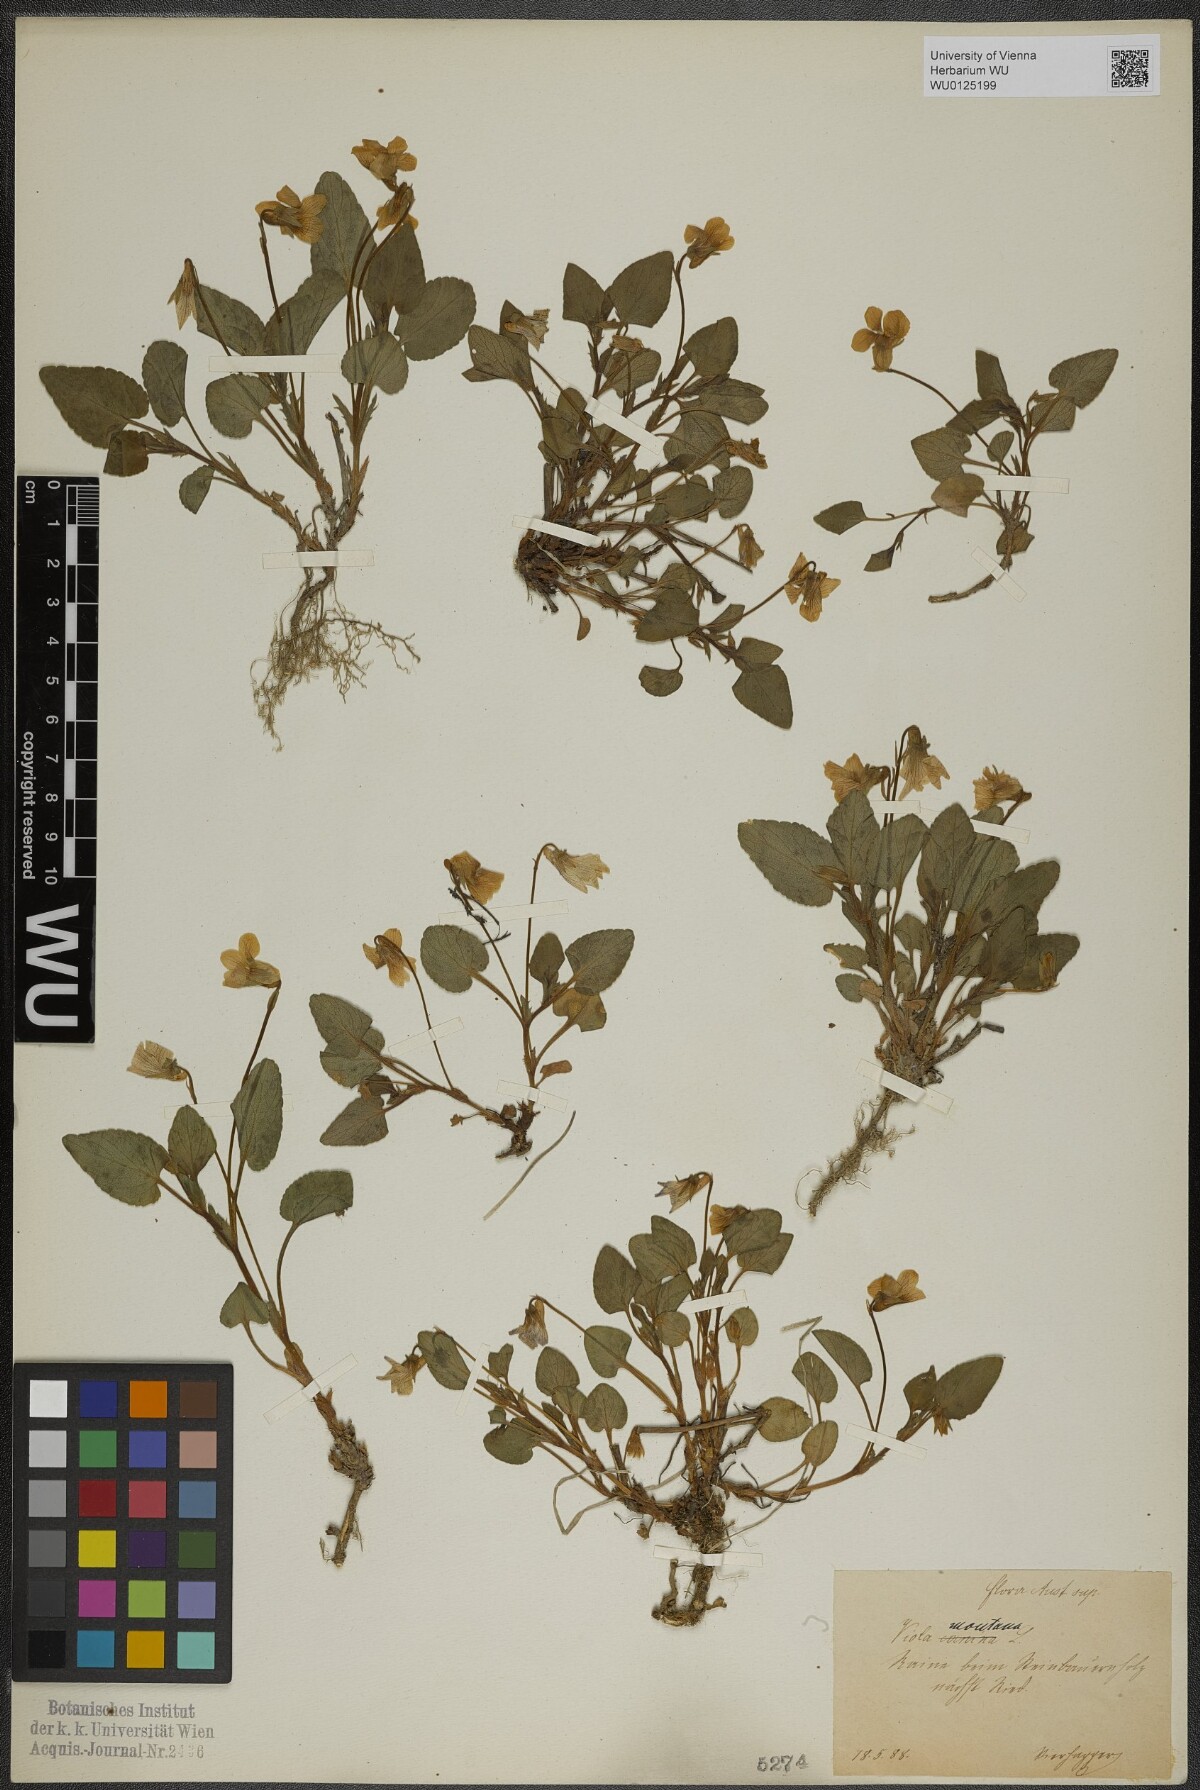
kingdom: Plantae
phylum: Tracheophyta
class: Magnoliopsida
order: Malpighiales
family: Violaceae
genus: Viola
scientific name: Viola ruppii
